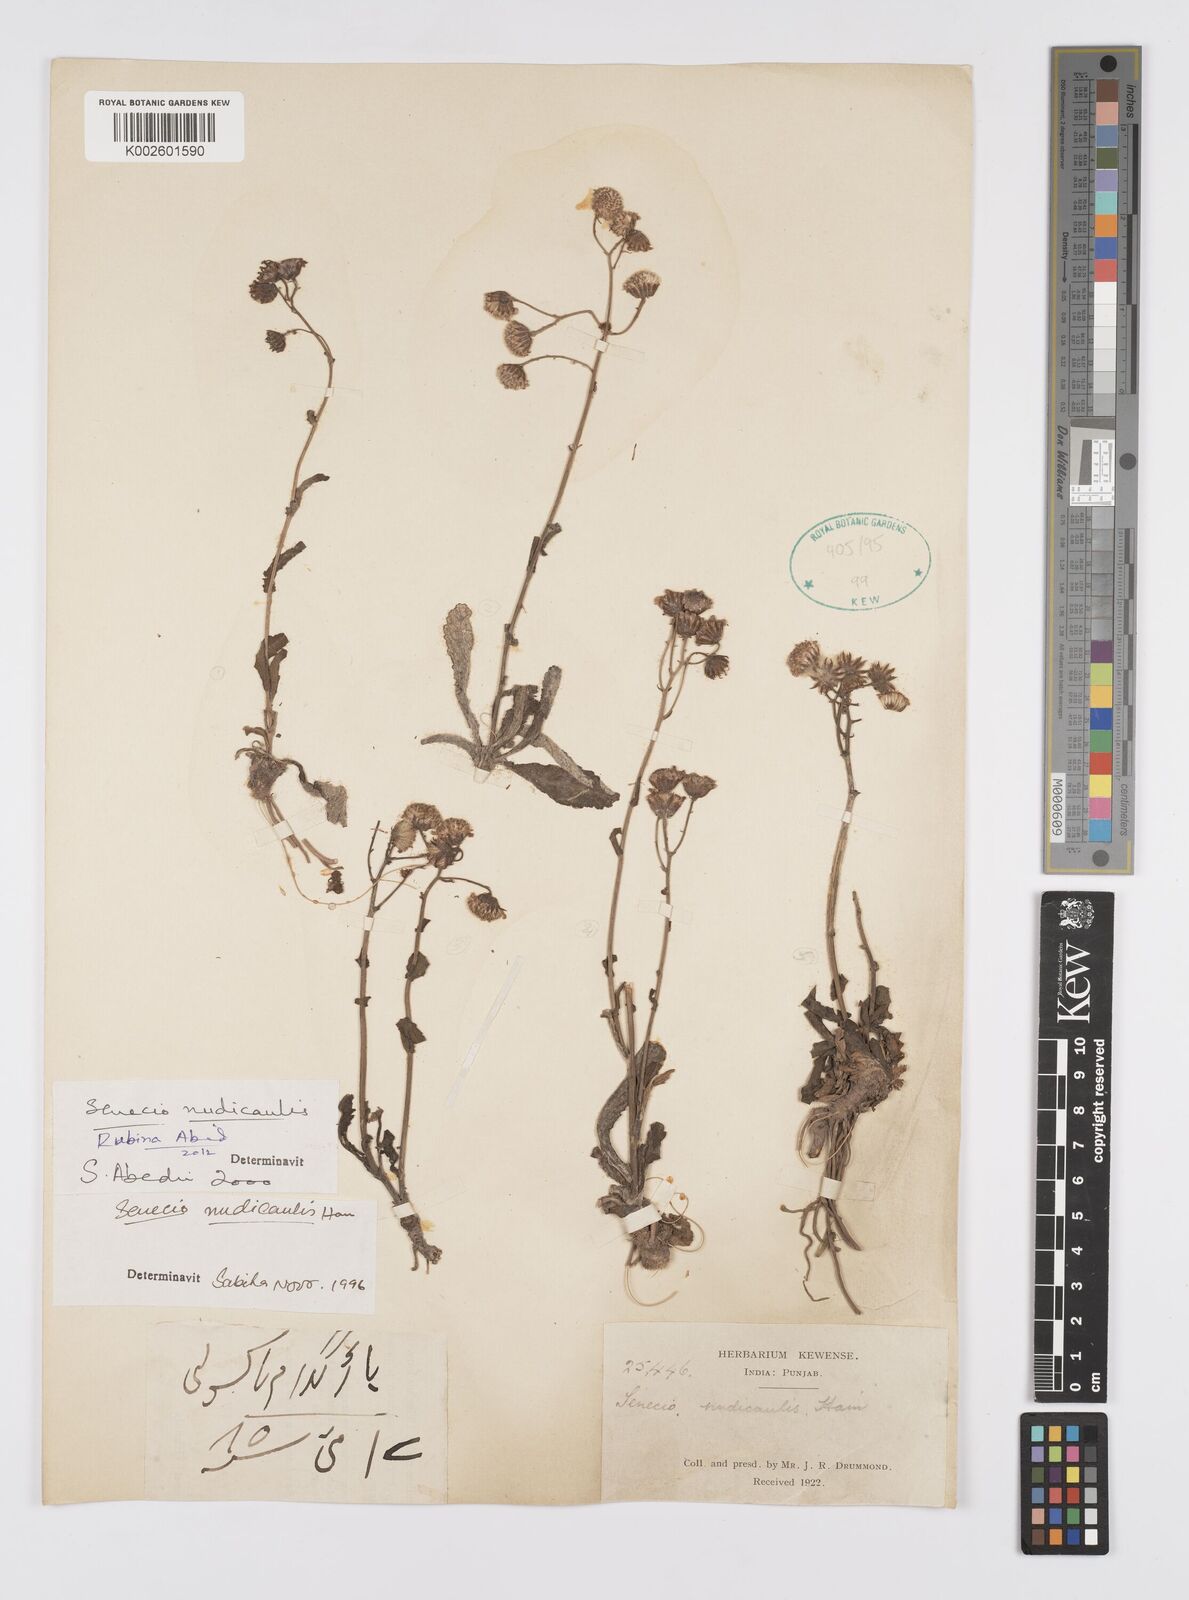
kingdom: Plantae
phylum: Tracheophyta
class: Magnoliopsida
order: Asterales
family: Asteraceae
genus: Jacobaea
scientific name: Jacobaea nudicaulis
